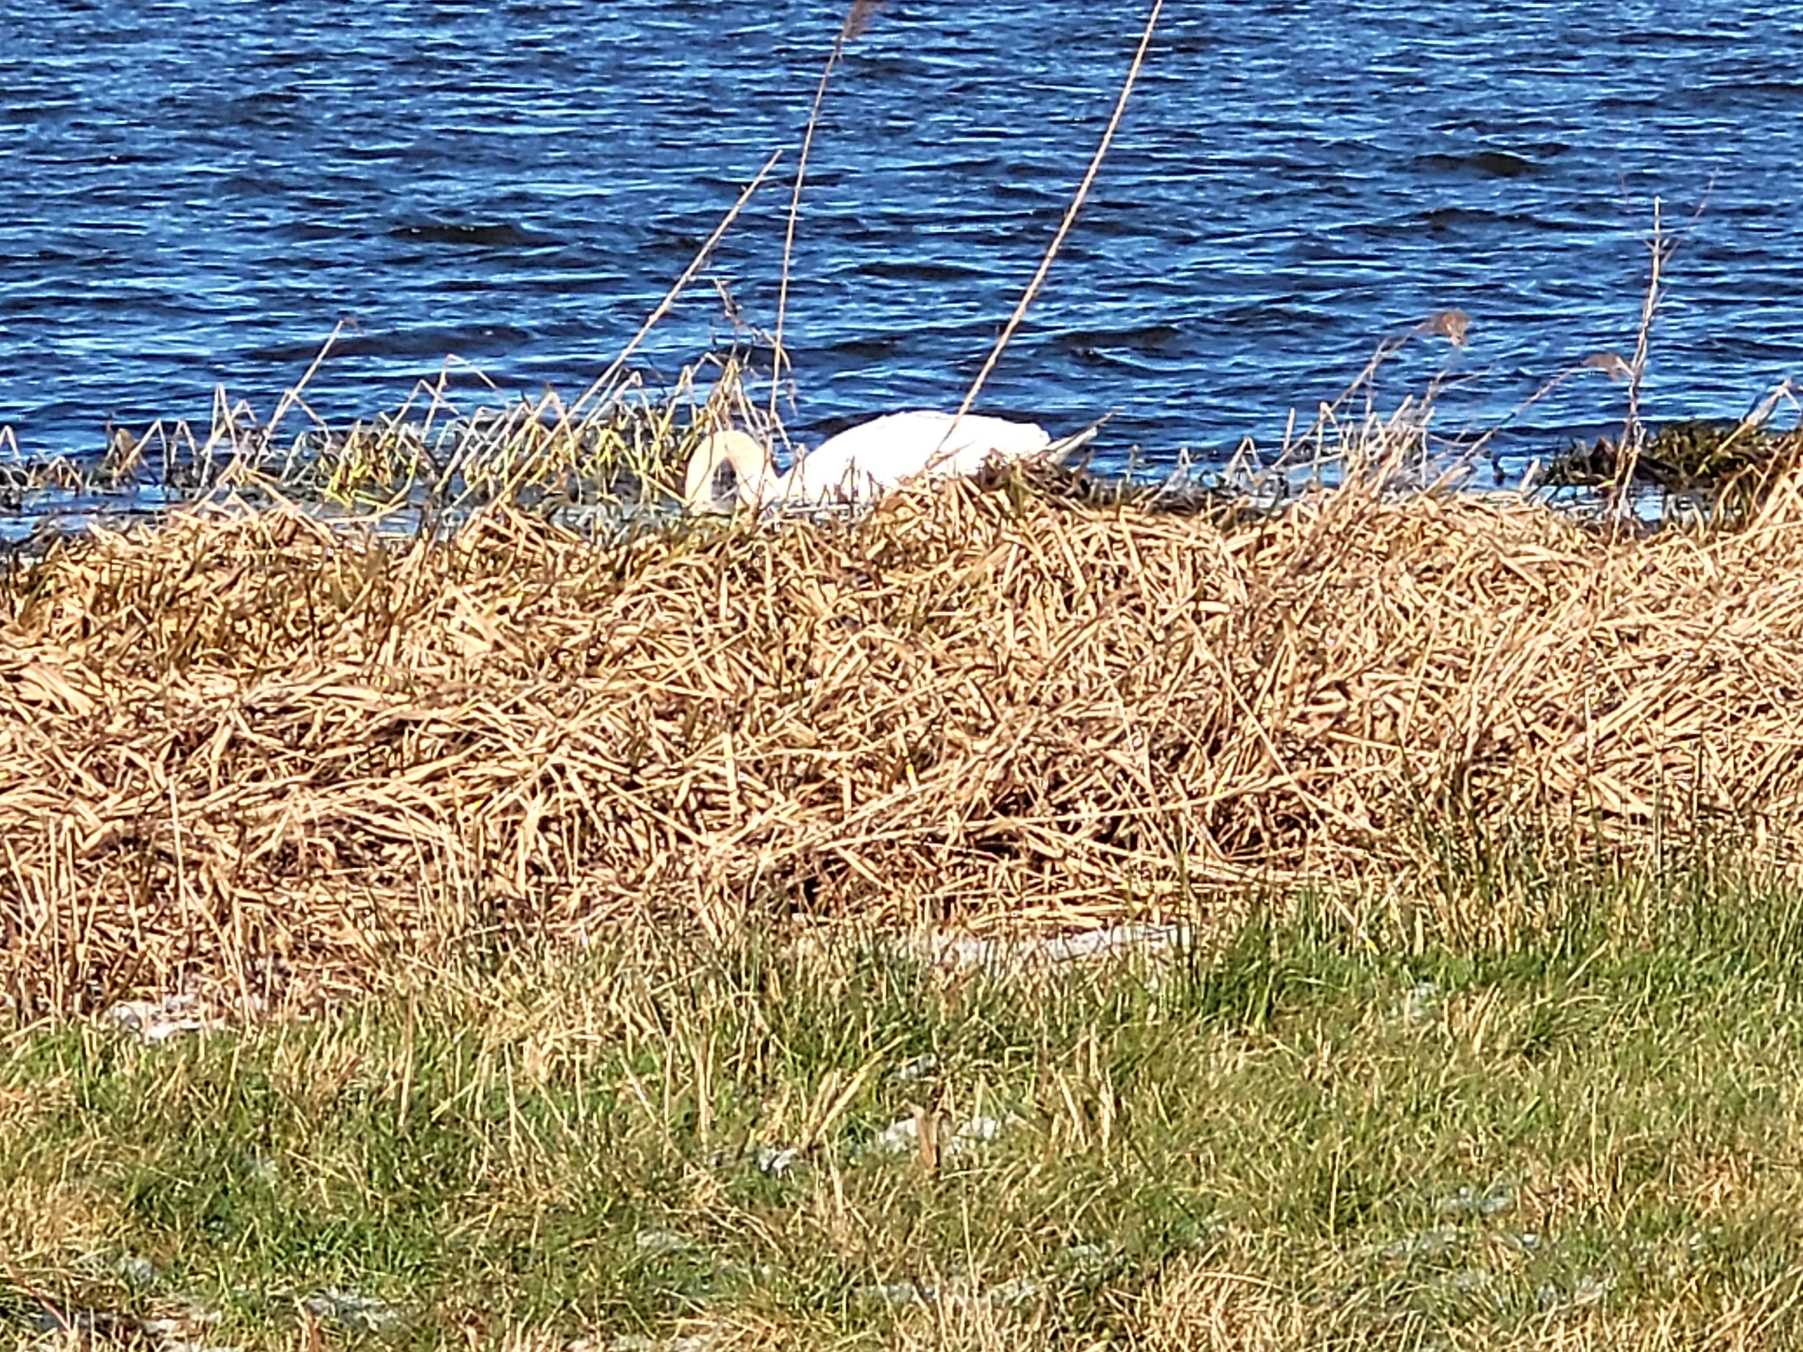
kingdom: Animalia
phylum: Chordata
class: Aves
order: Anseriformes
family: Anatidae
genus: Cygnus
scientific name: Cygnus olor
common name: Knopsvane
